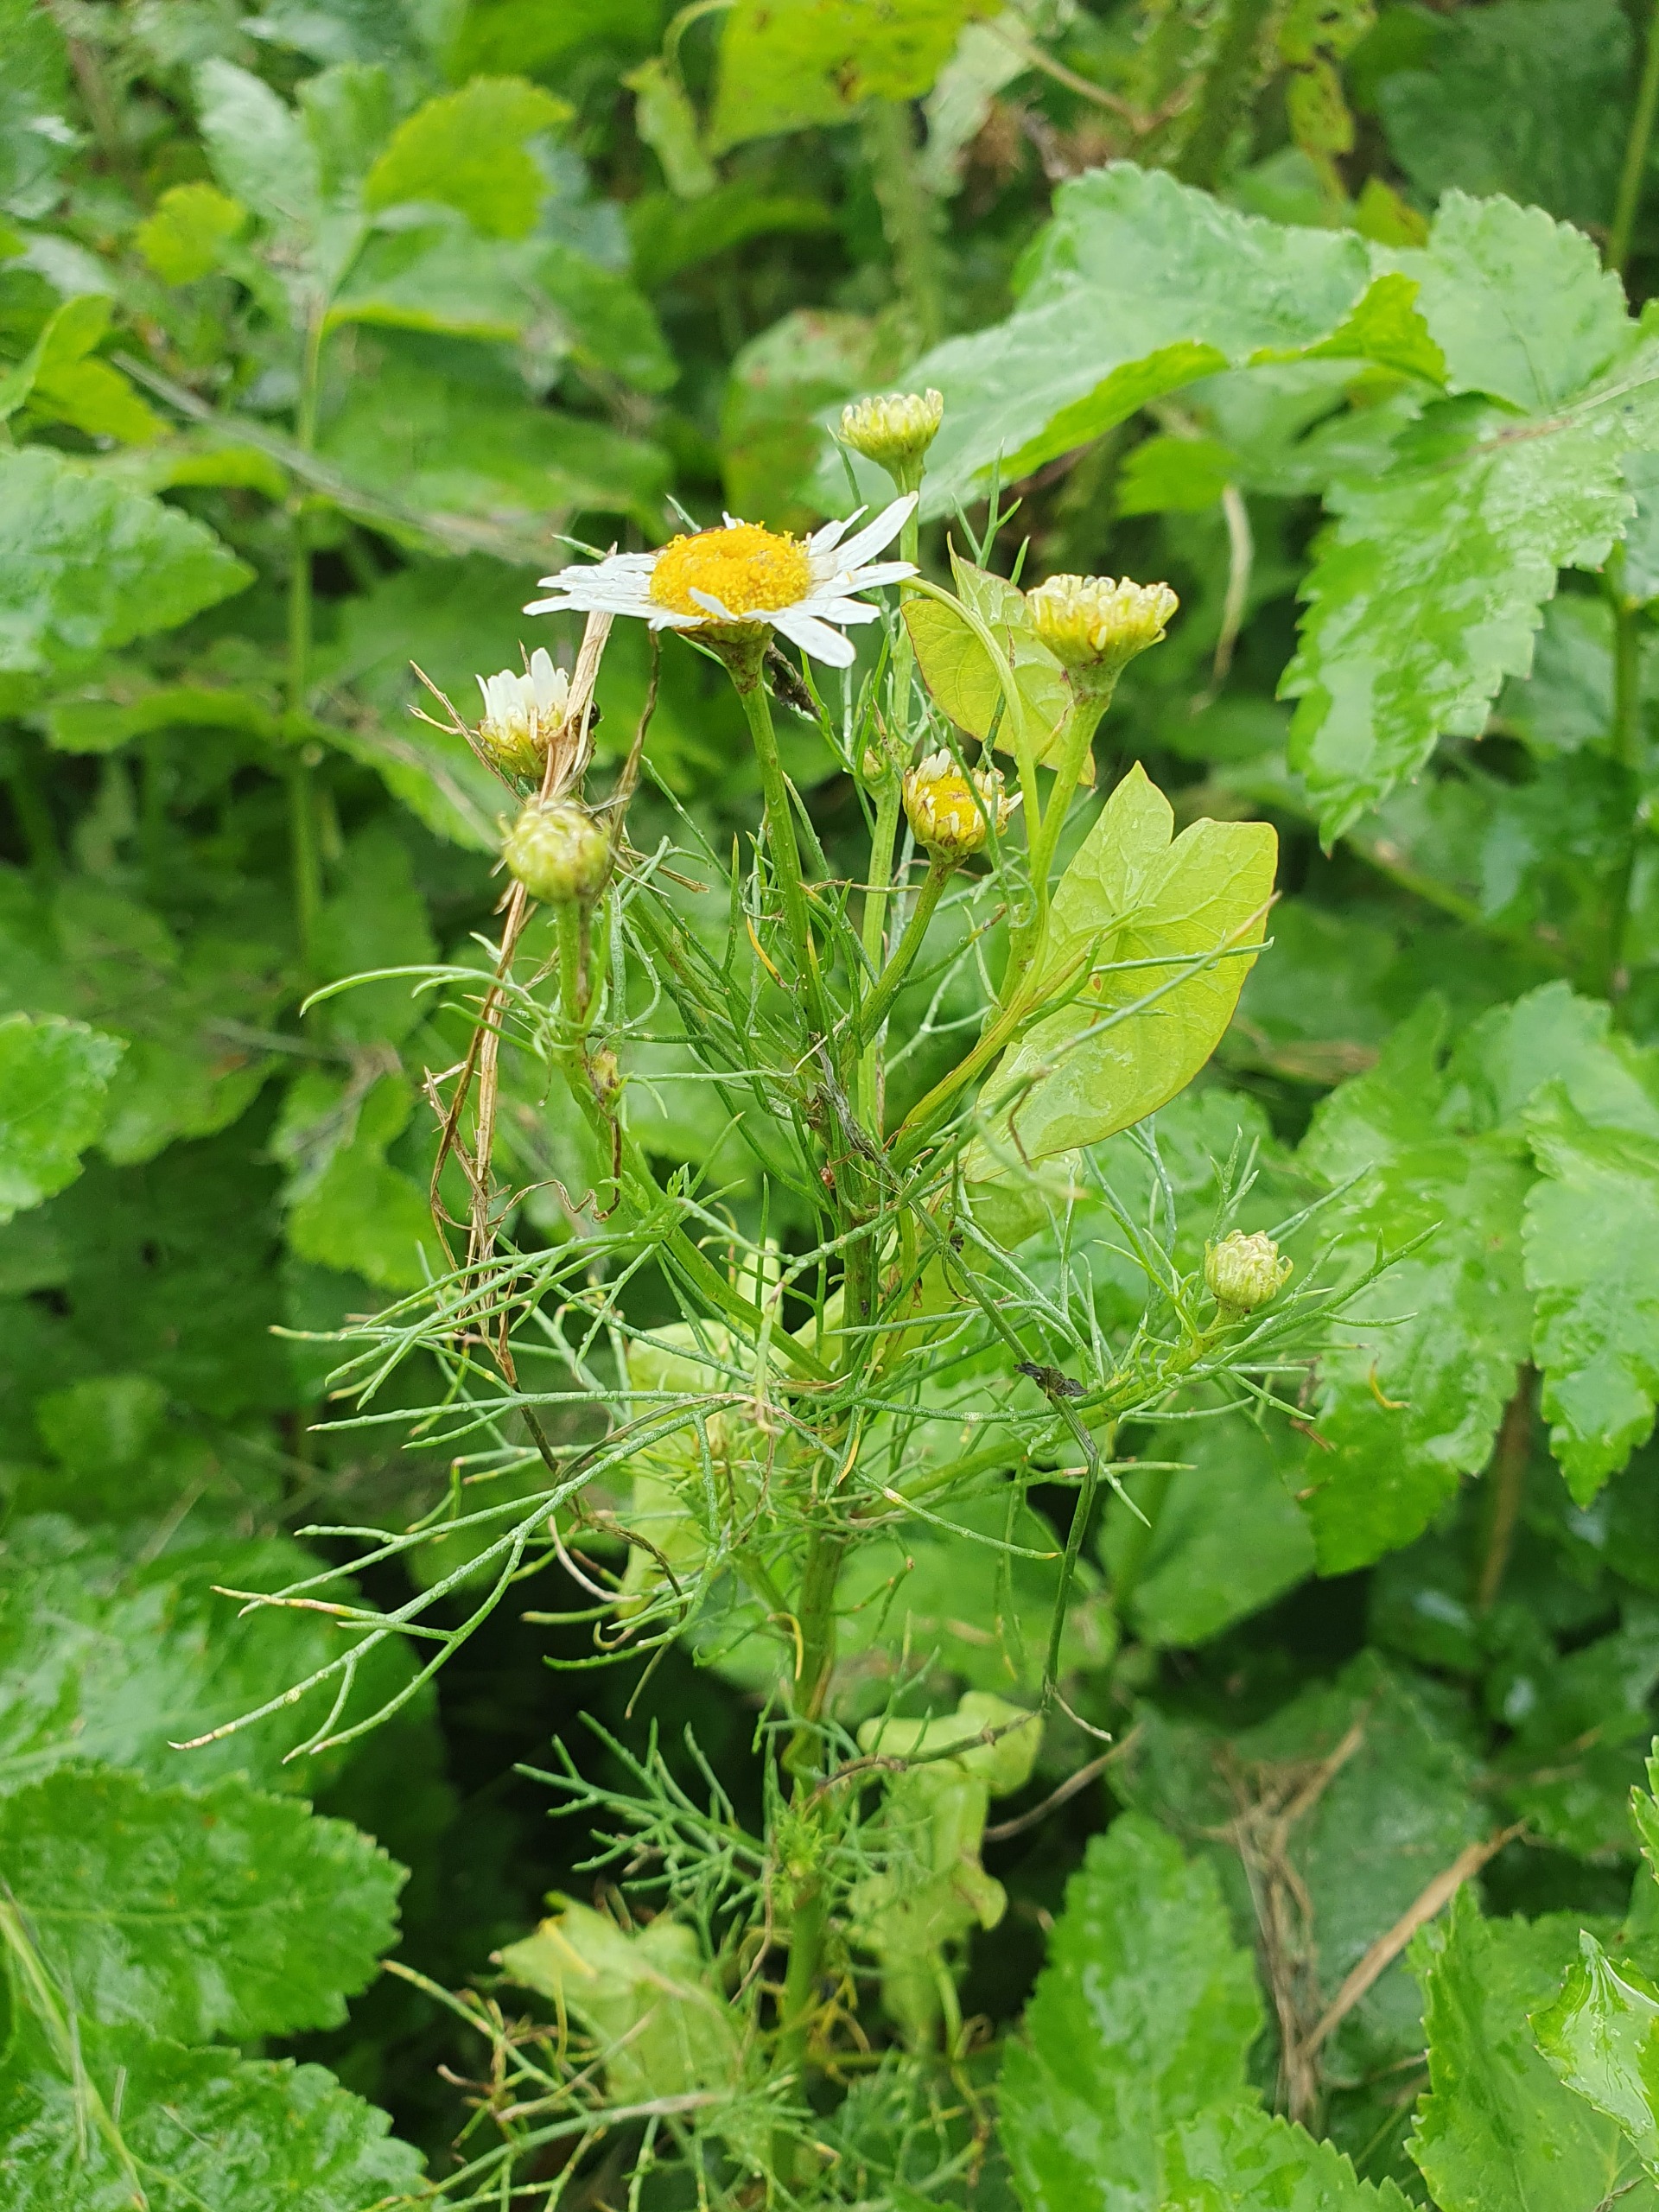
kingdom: Plantae
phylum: Tracheophyta
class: Magnoliopsida
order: Asterales
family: Asteraceae
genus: Tripleurospermum
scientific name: Tripleurospermum inodorum
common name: Lugtløs kamille
